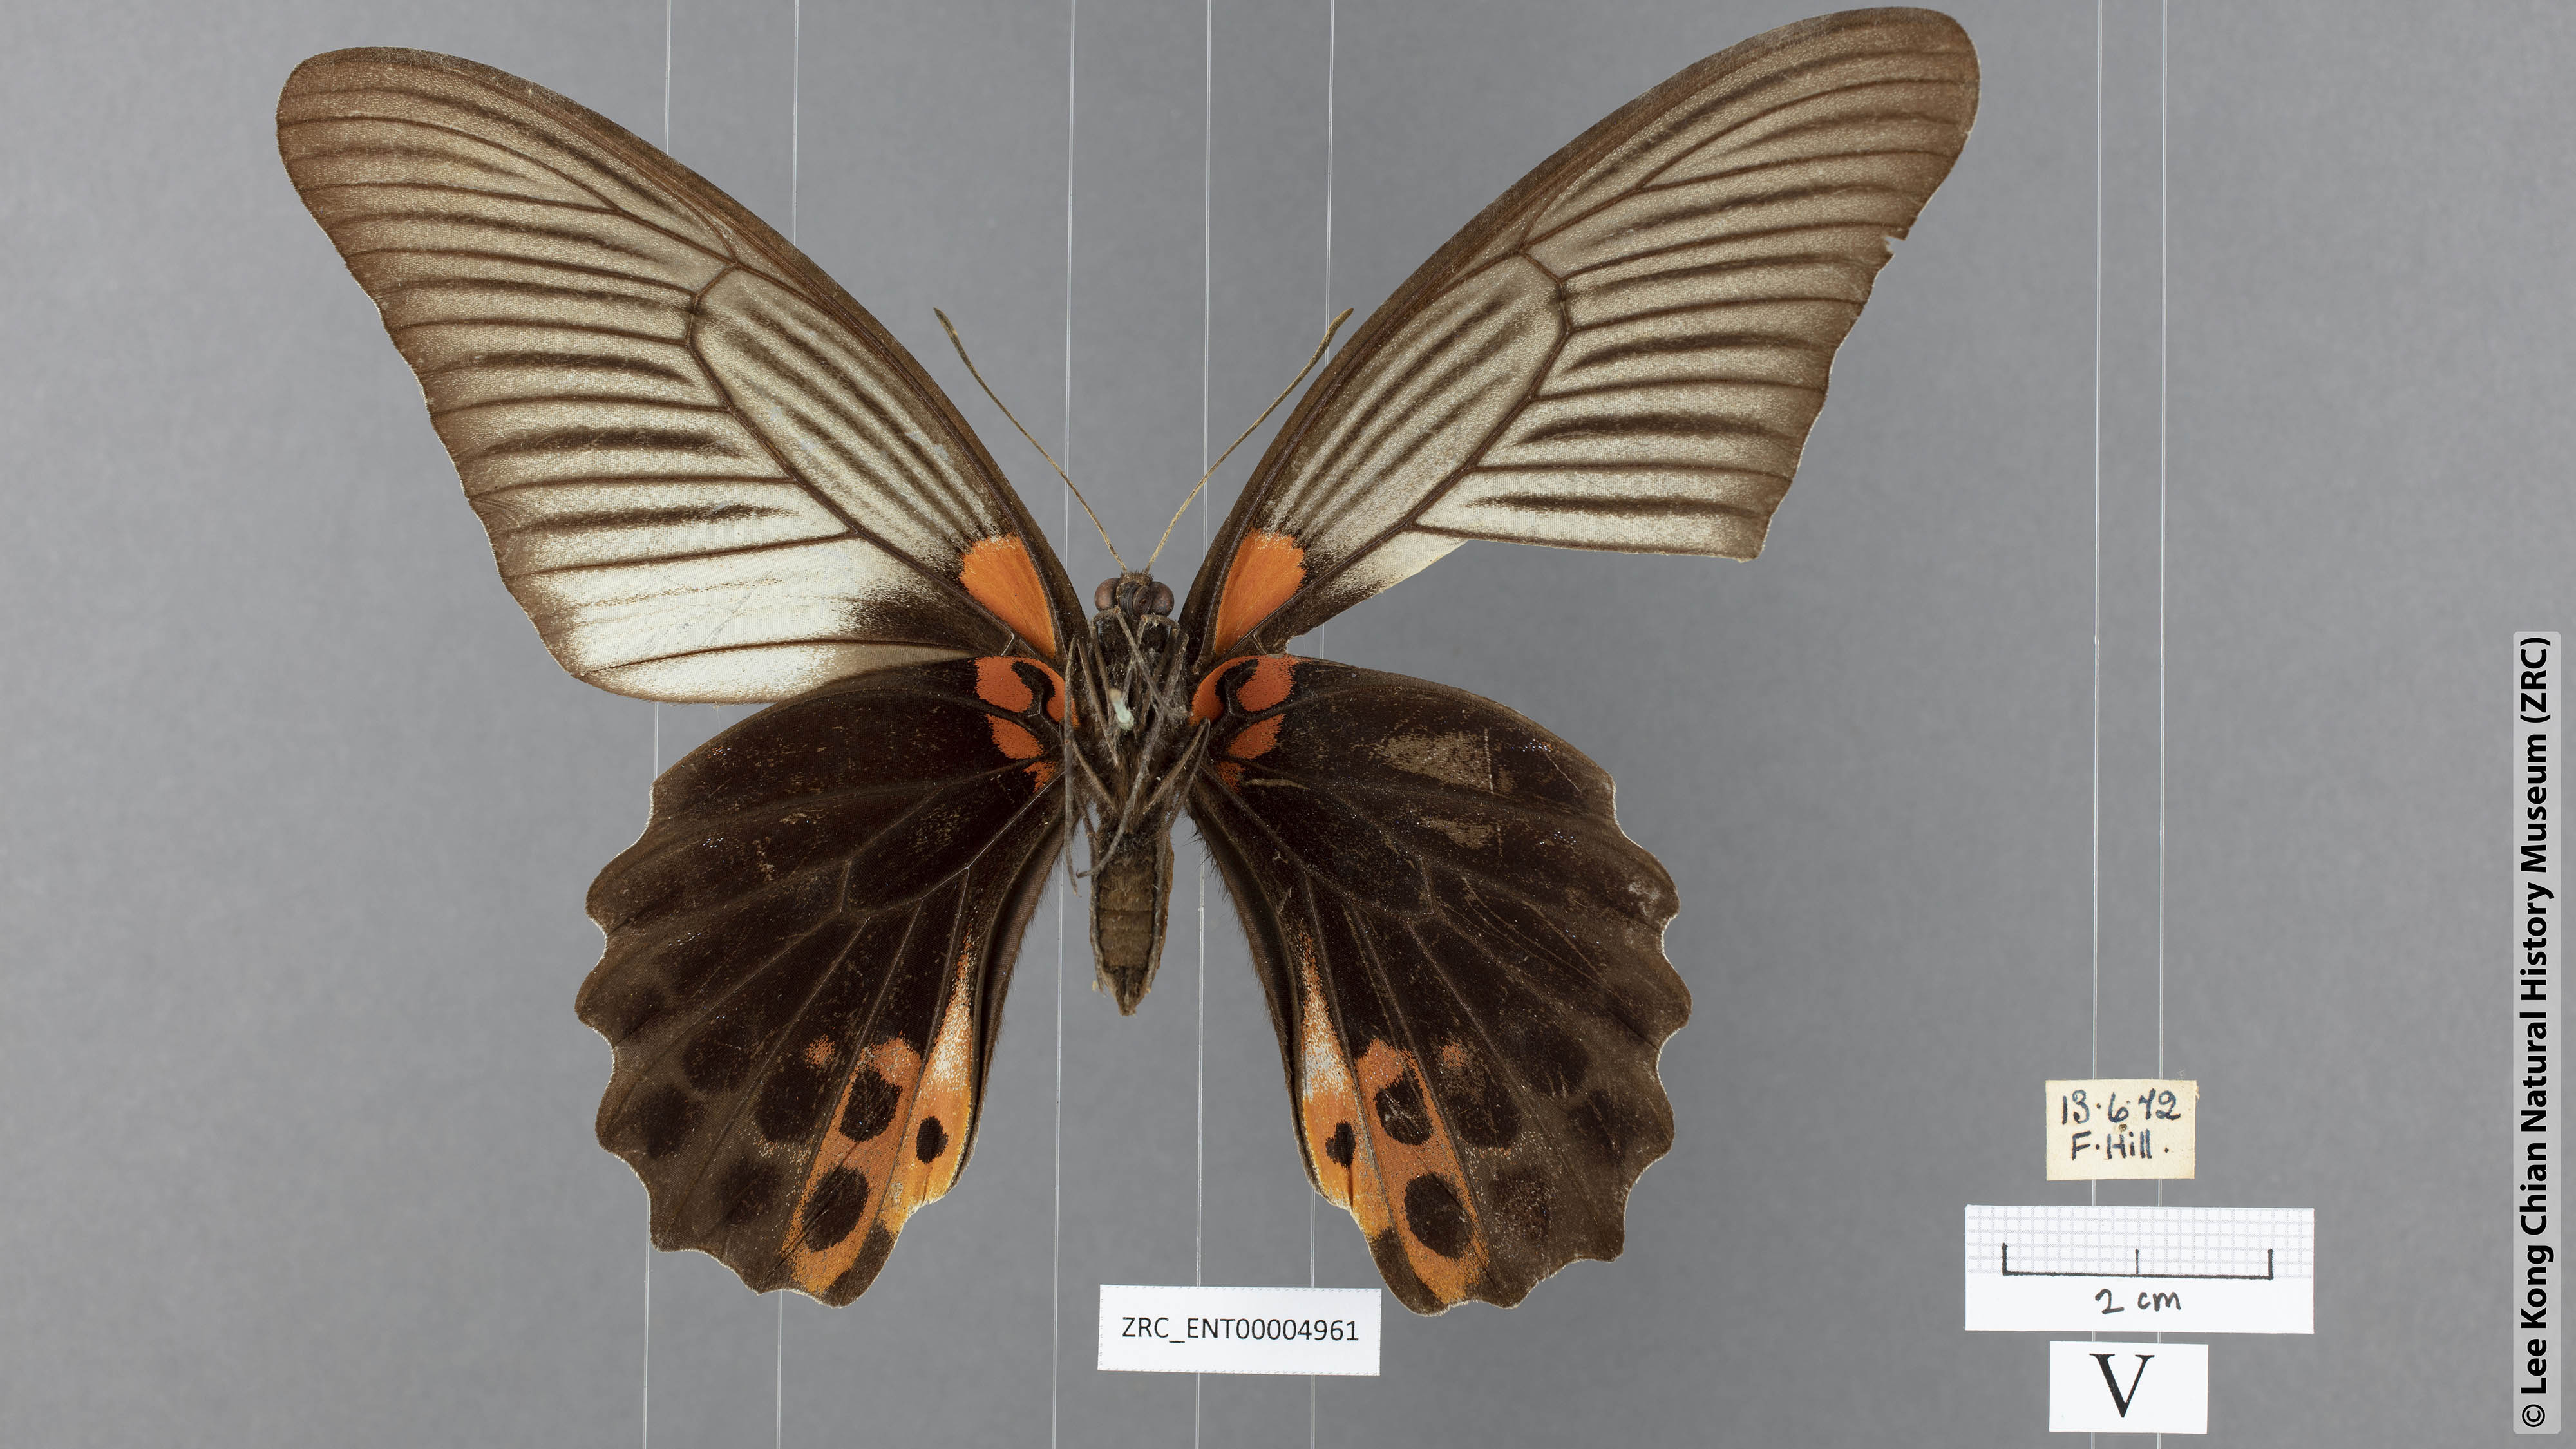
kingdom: Animalia
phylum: Arthropoda
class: Insecta
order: Lepidoptera
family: Papilionidae
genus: Papilio
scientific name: Papilio memnon
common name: Great mormon
